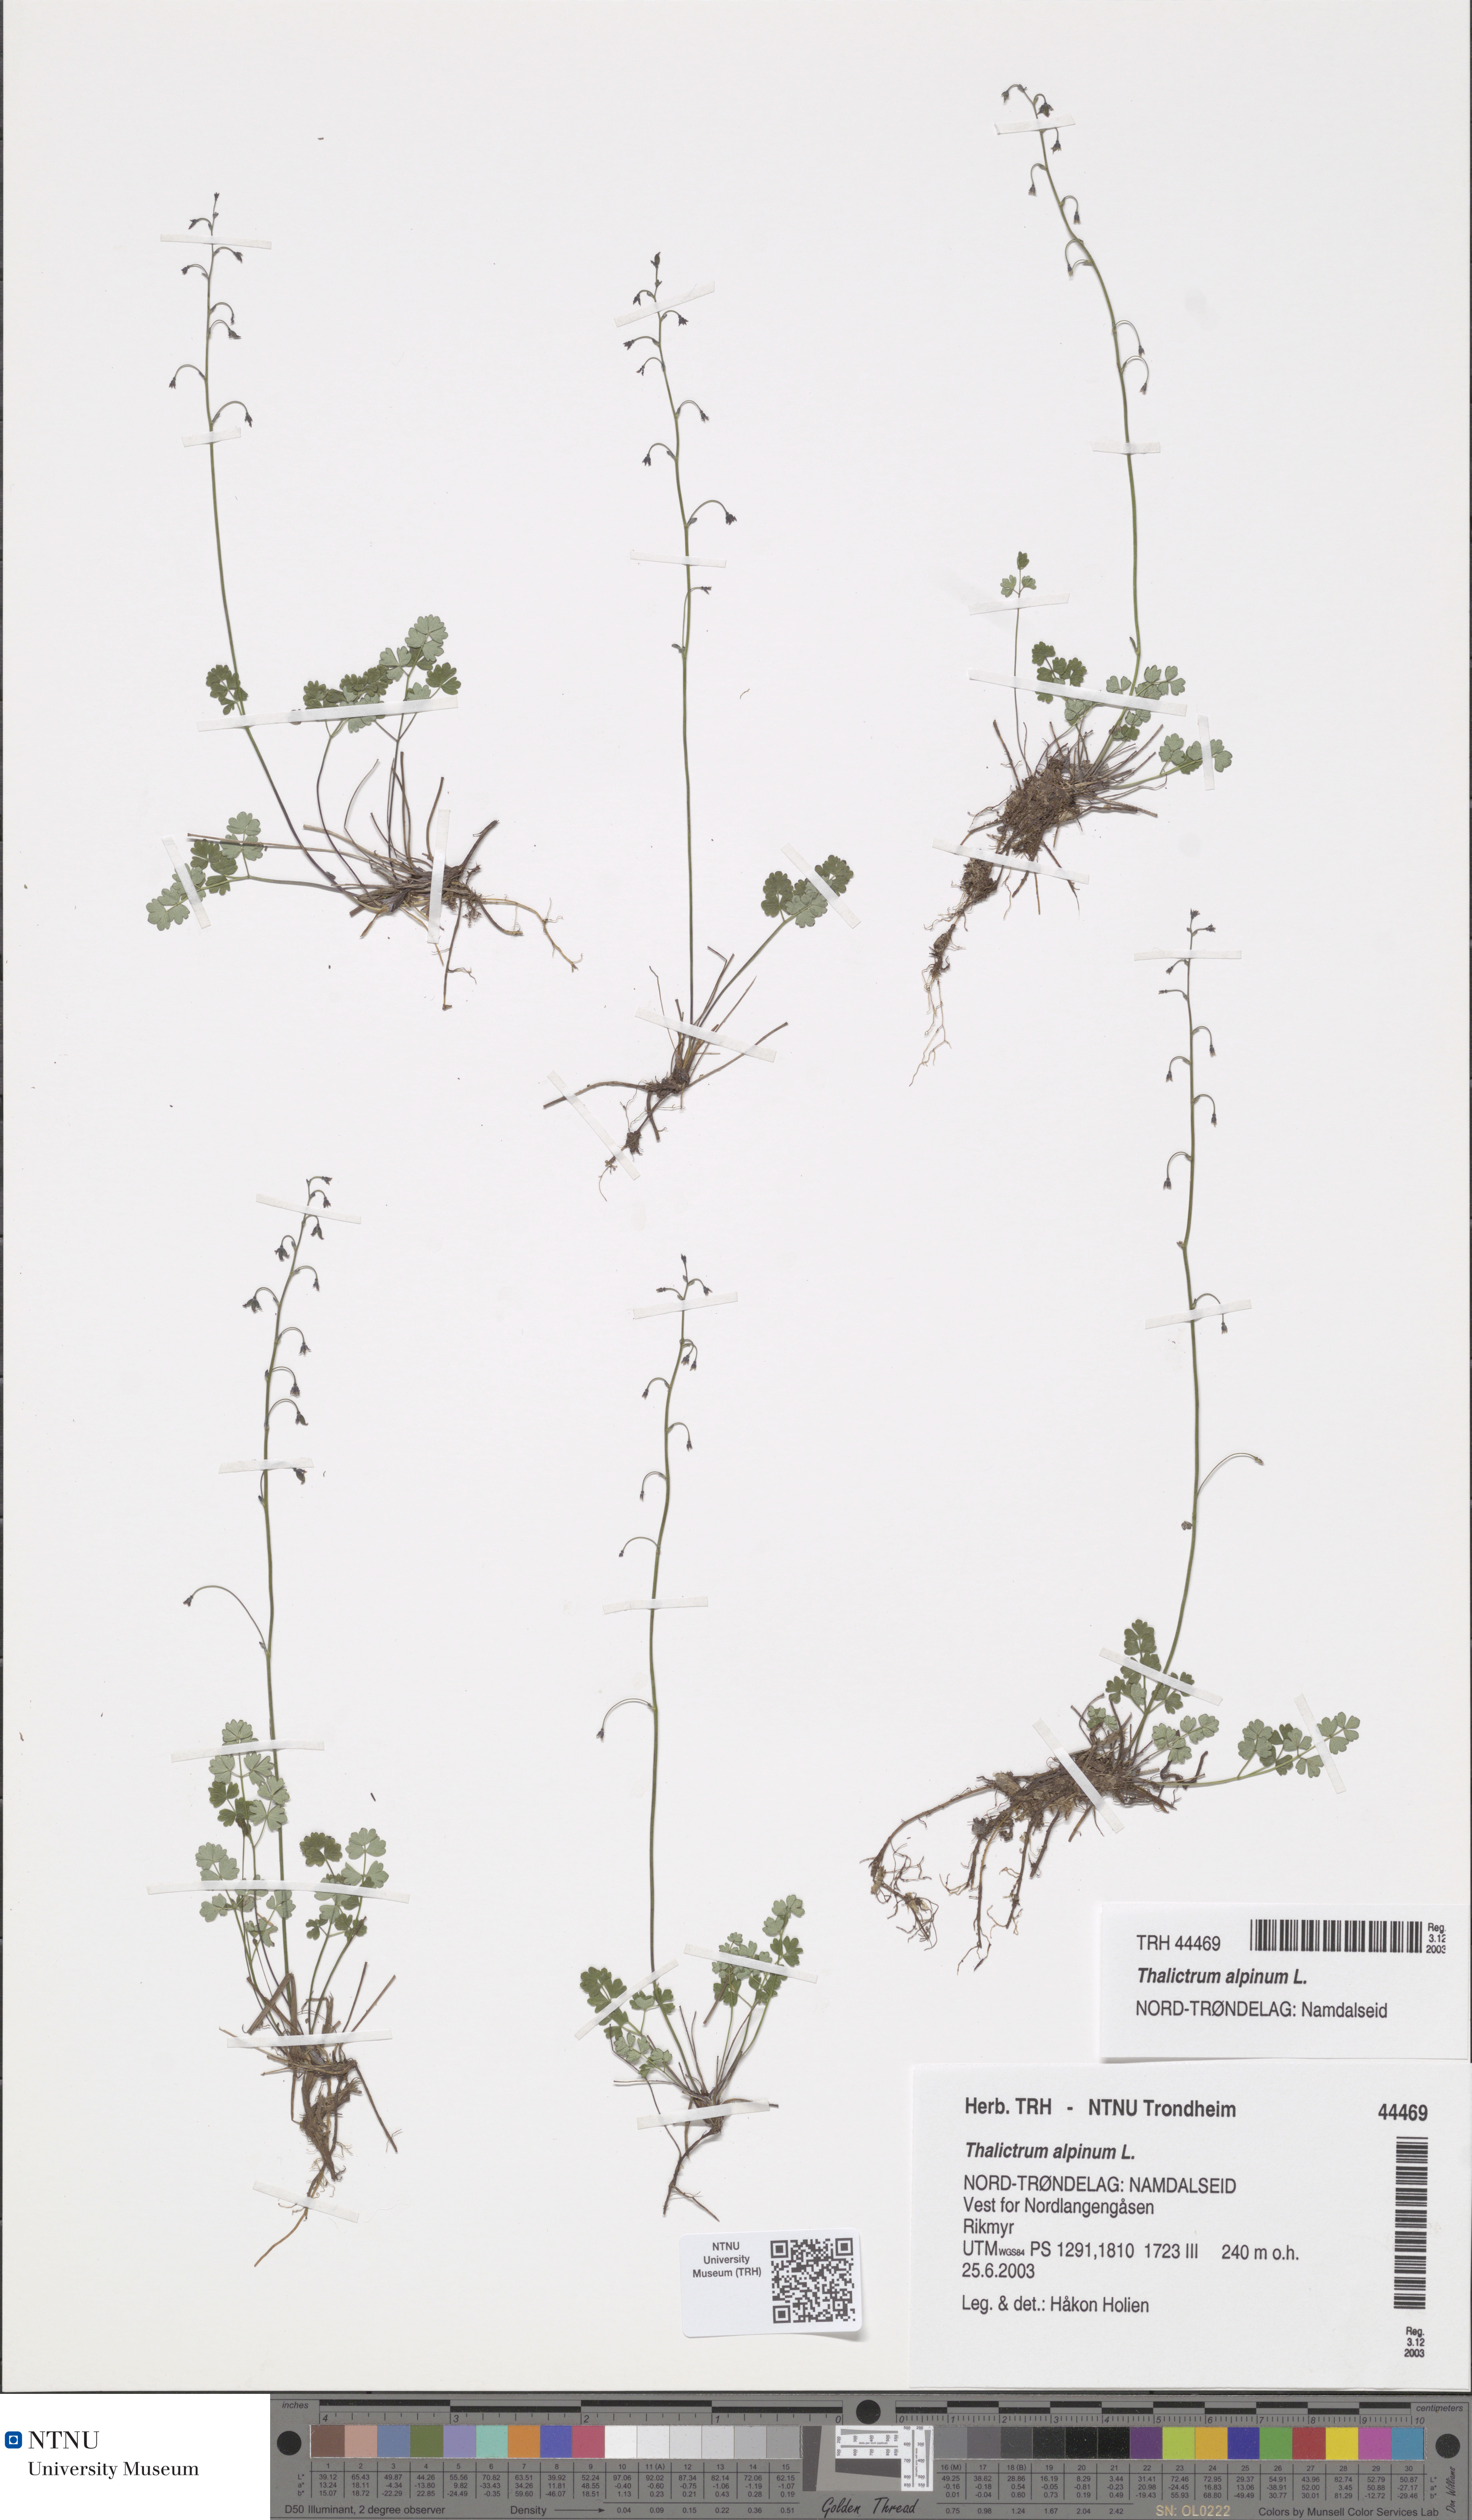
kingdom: Plantae
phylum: Tracheophyta
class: Magnoliopsida
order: Ranunculales
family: Ranunculaceae
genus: Thalictrum
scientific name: Thalictrum alpinum
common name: Alpine meadow-rue
